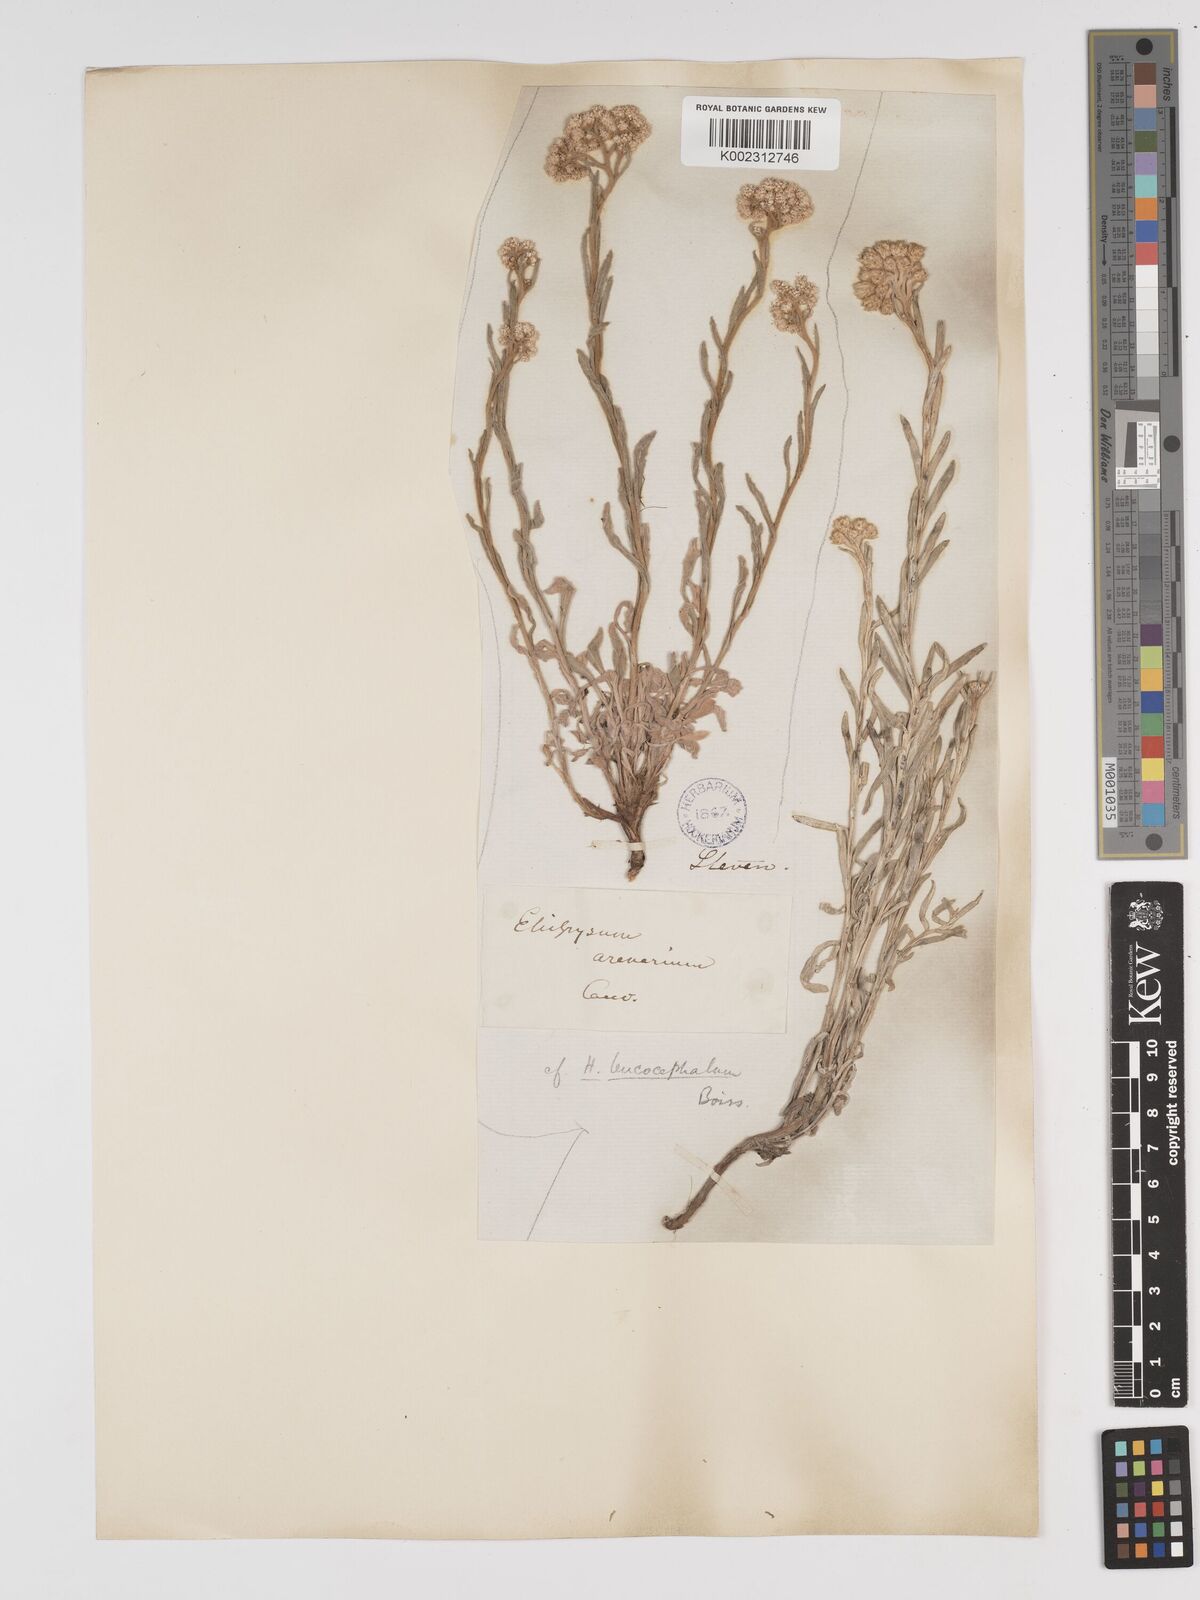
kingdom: Plantae
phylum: Tracheophyta
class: Magnoliopsida
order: Asterales
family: Asteraceae
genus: Helichrysum
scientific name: Helichrysum leucocephalum
